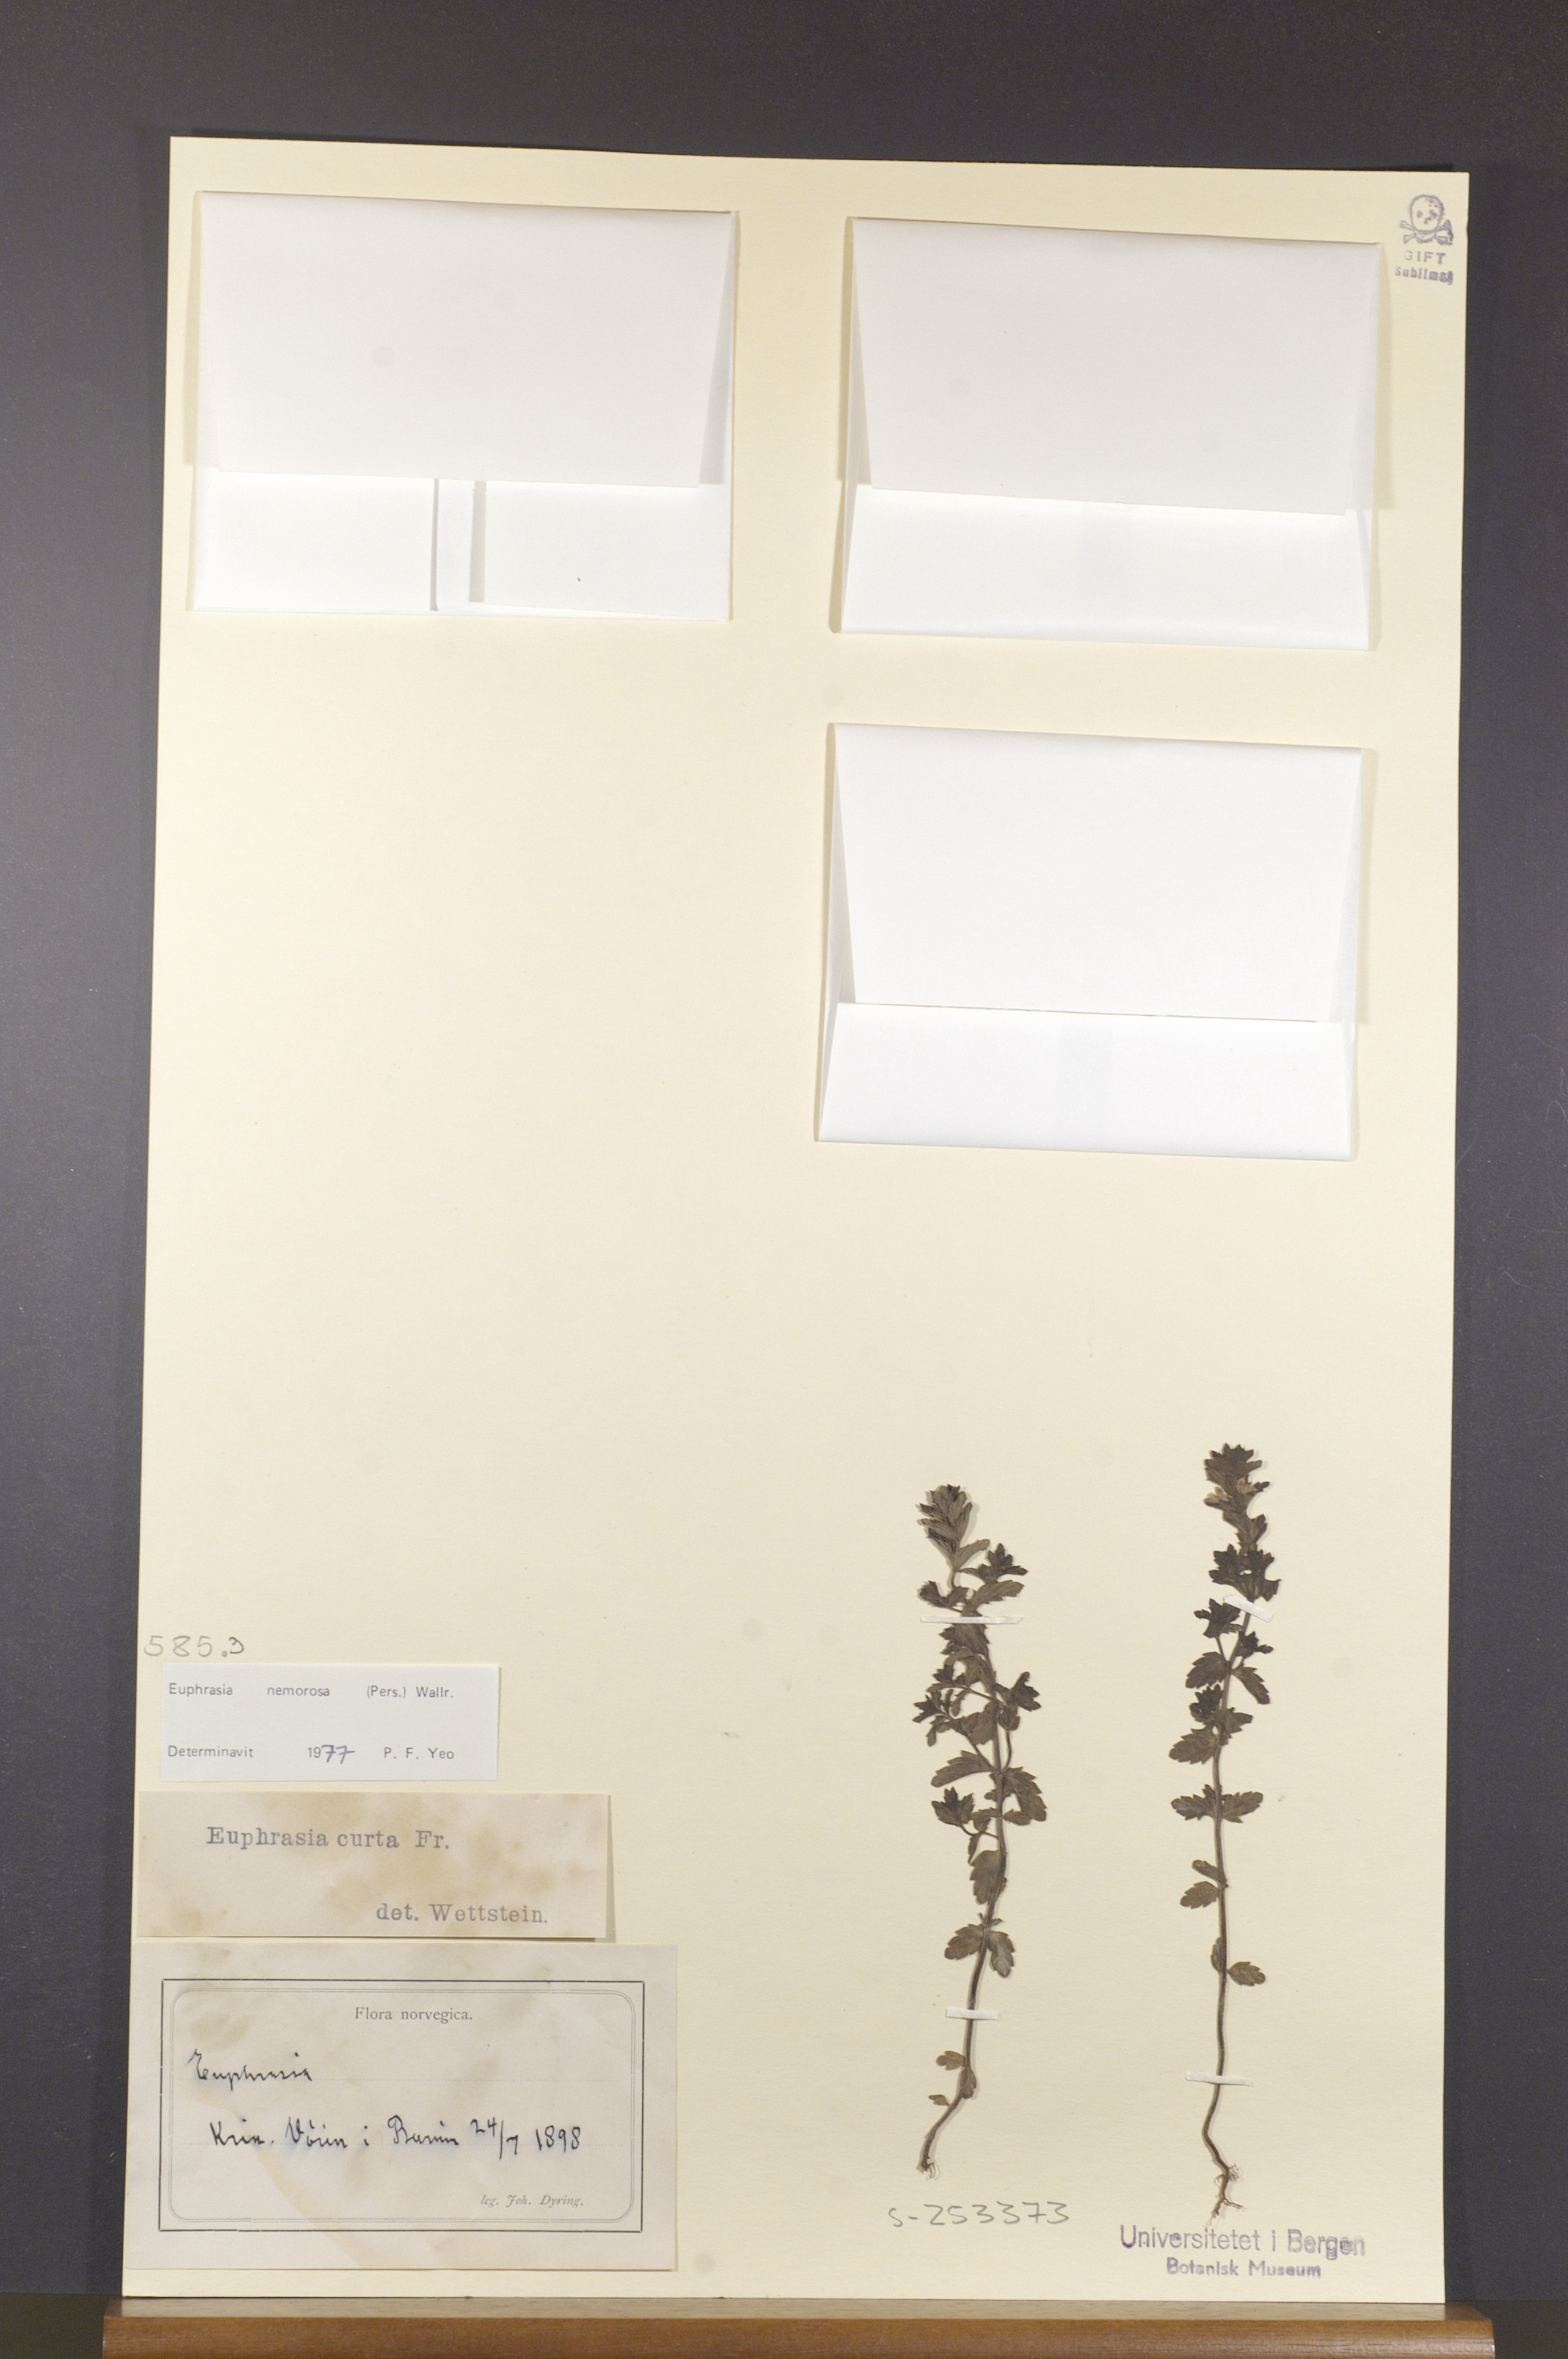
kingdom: Plantae
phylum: Tracheophyta
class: Magnoliopsida
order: Lamiales
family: Orobanchaceae
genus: Euphrasia
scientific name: Euphrasia nemorosa
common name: Common eyebright
